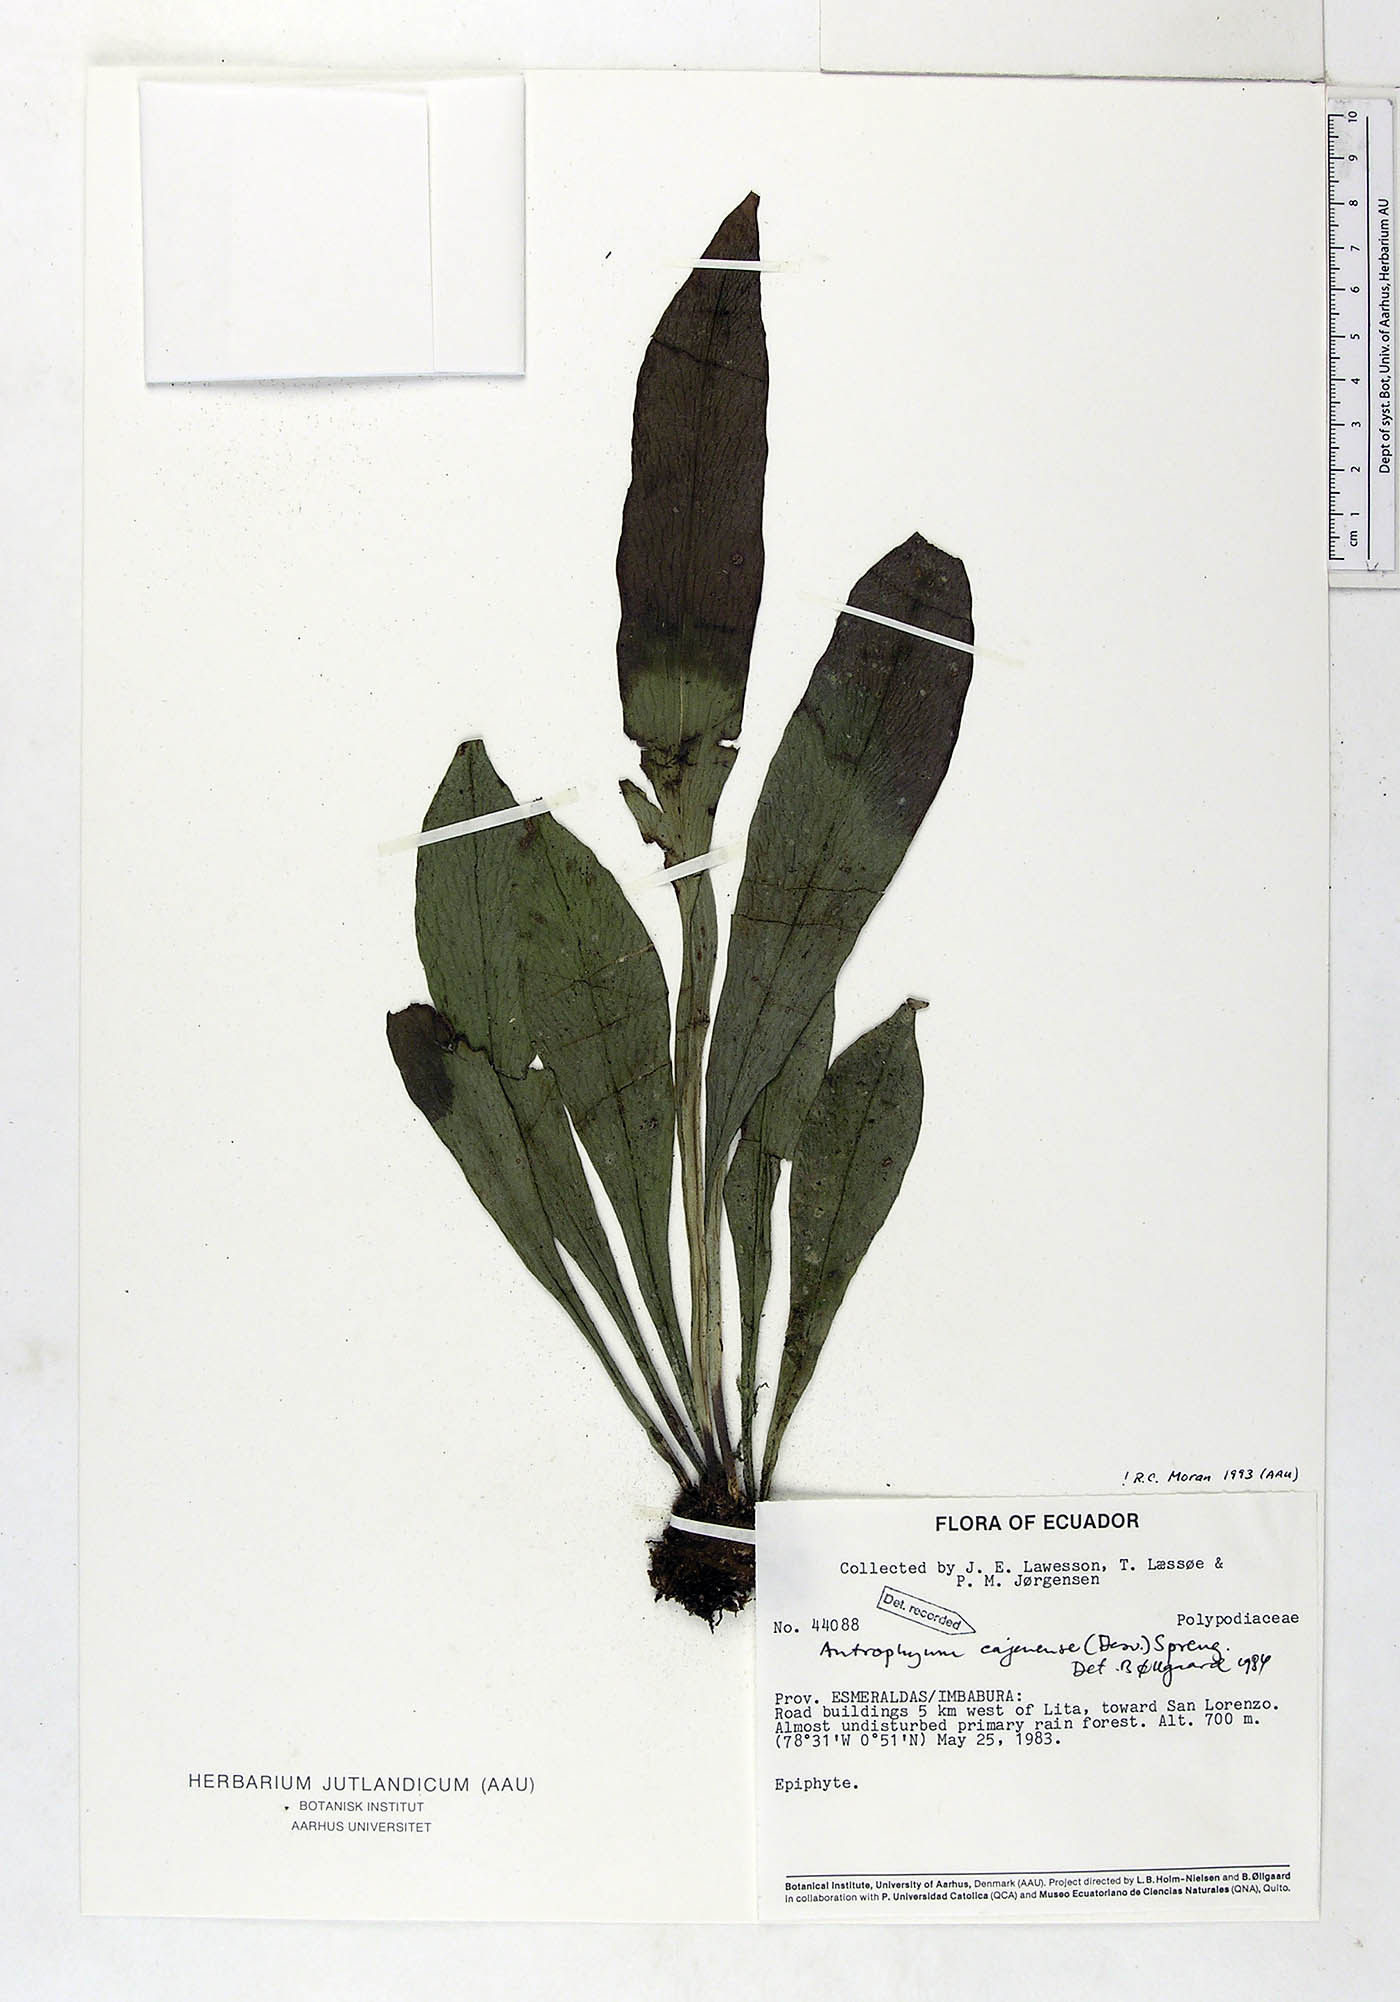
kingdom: Plantae
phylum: Tracheophyta
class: Polypodiopsida
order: Polypodiales
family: Pteridaceae
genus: Polytaenium
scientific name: Polytaenium cajenense
